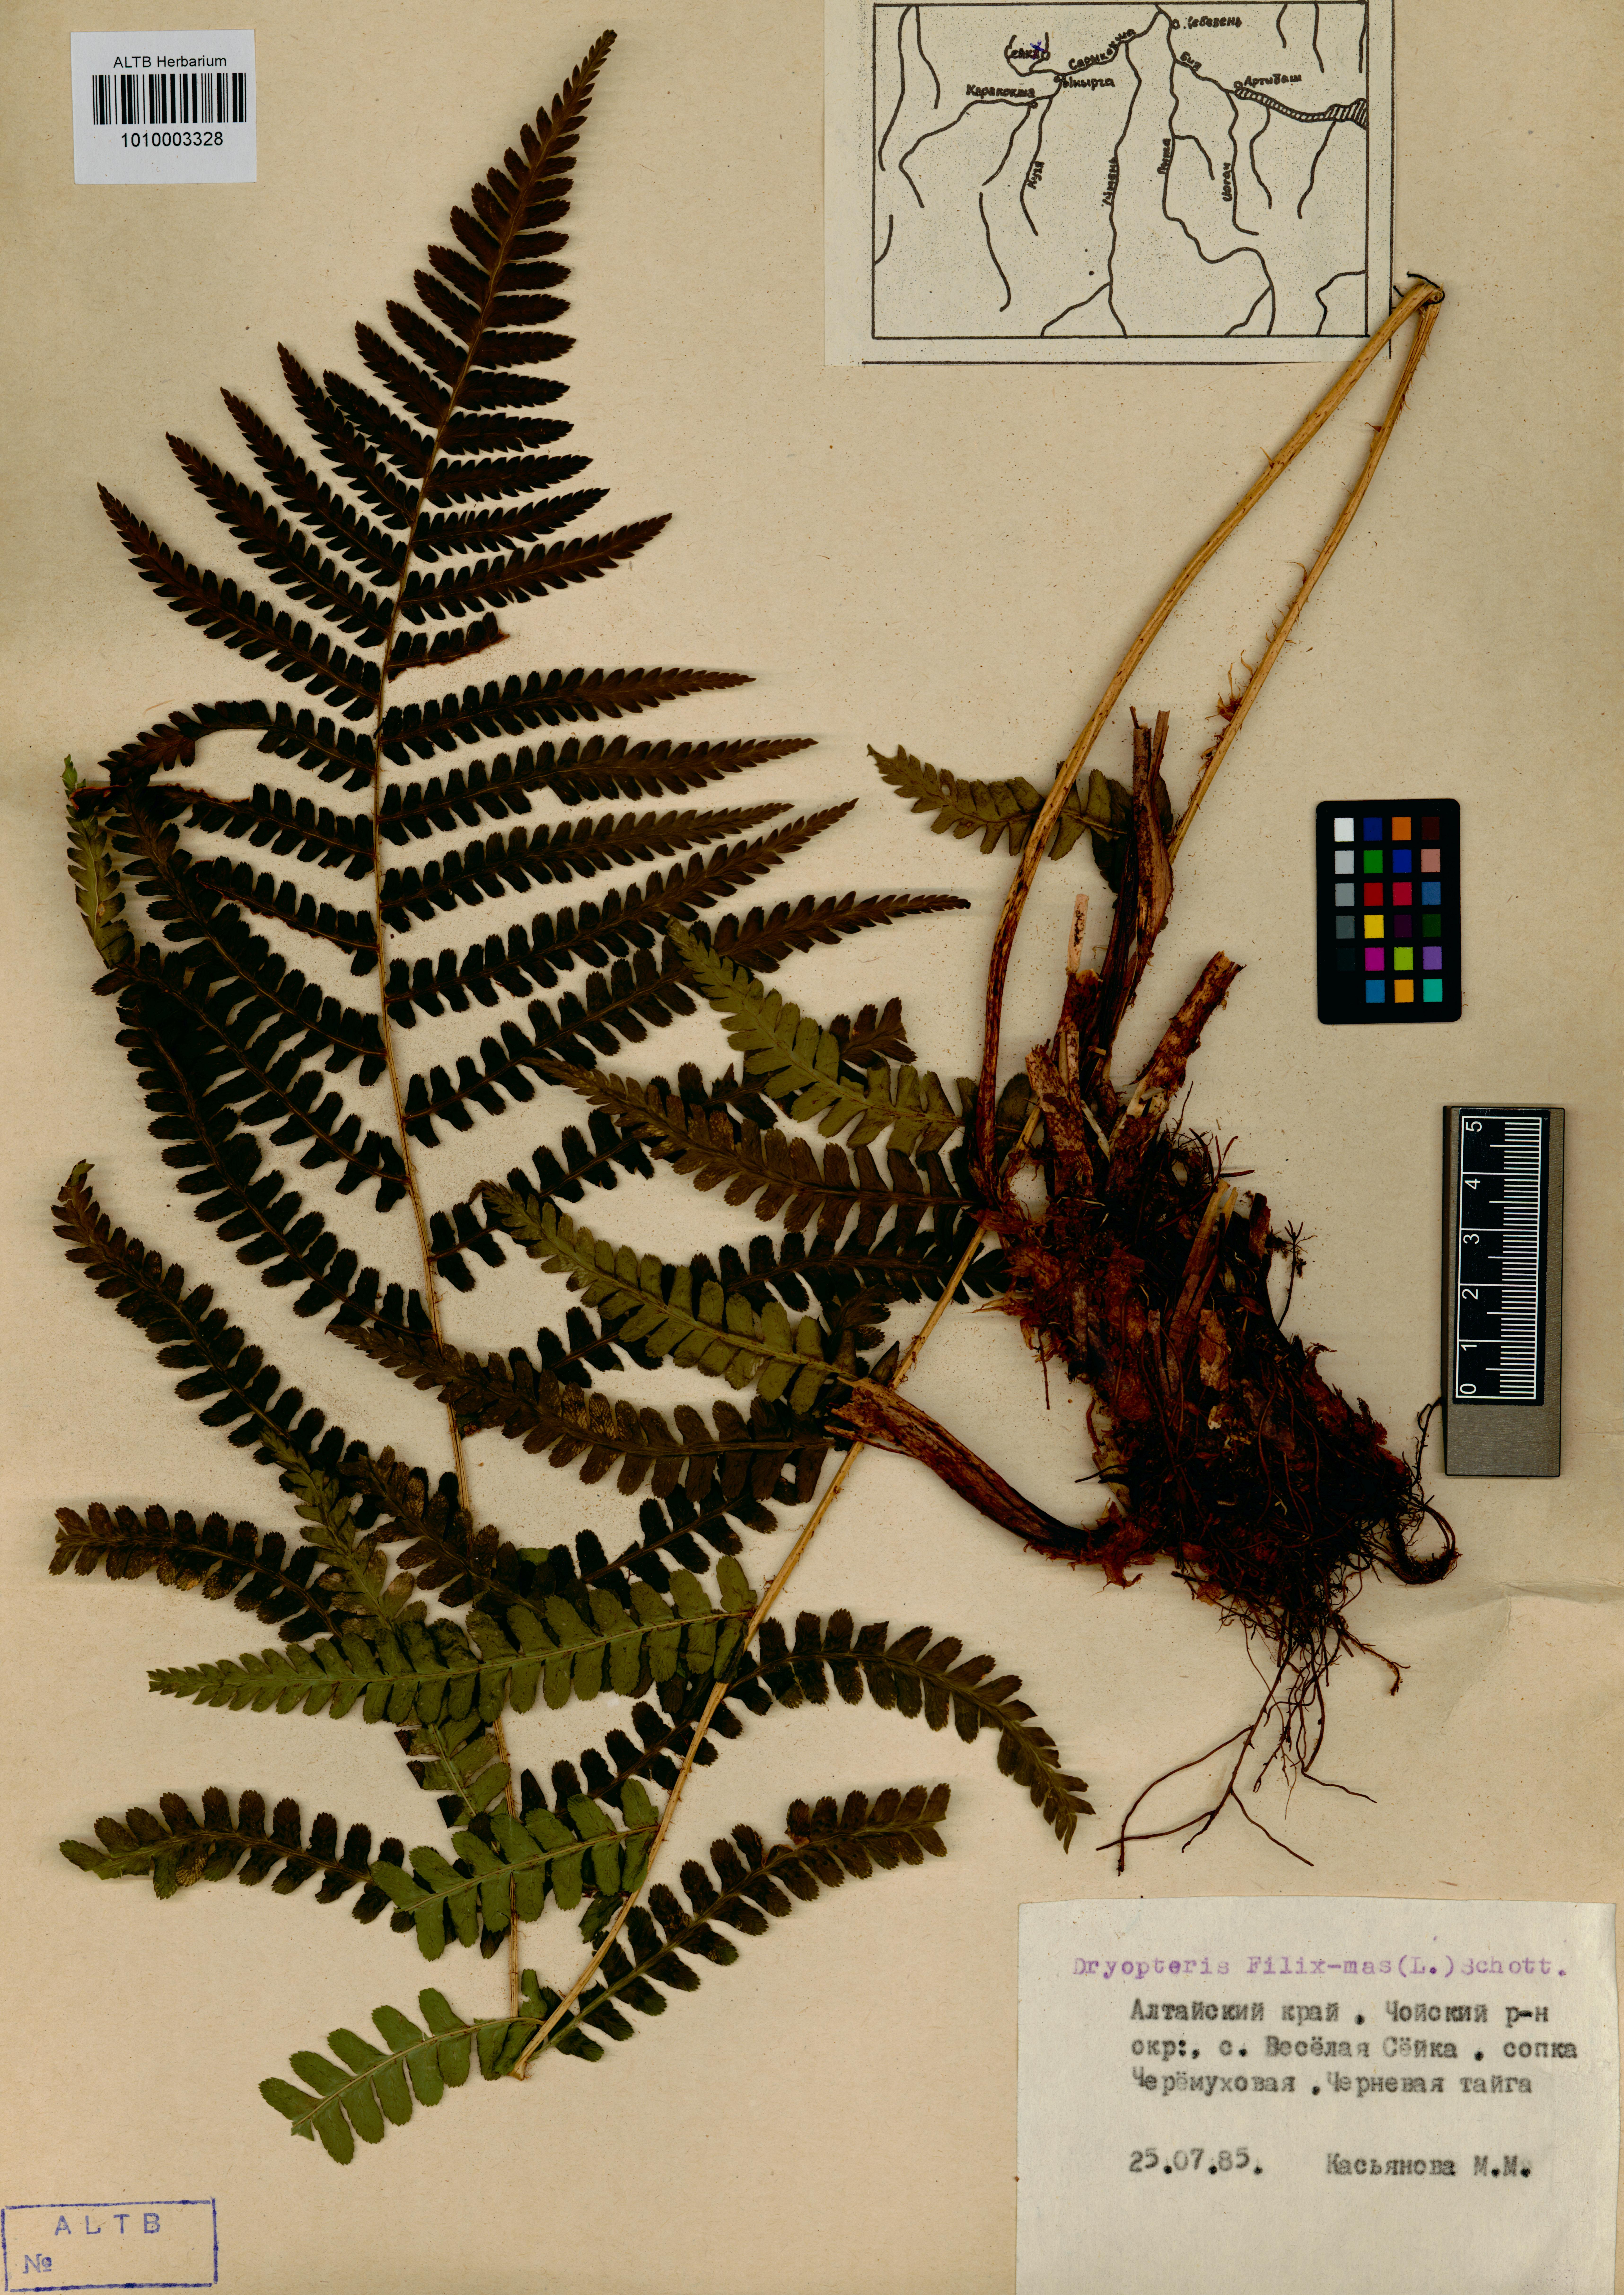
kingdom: Plantae
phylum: Tracheophyta
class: Polypodiopsida
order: Polypodiales
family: Dryopteridaceae
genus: Dryopteris
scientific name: Dryopteris filix-mas
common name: Male fern
